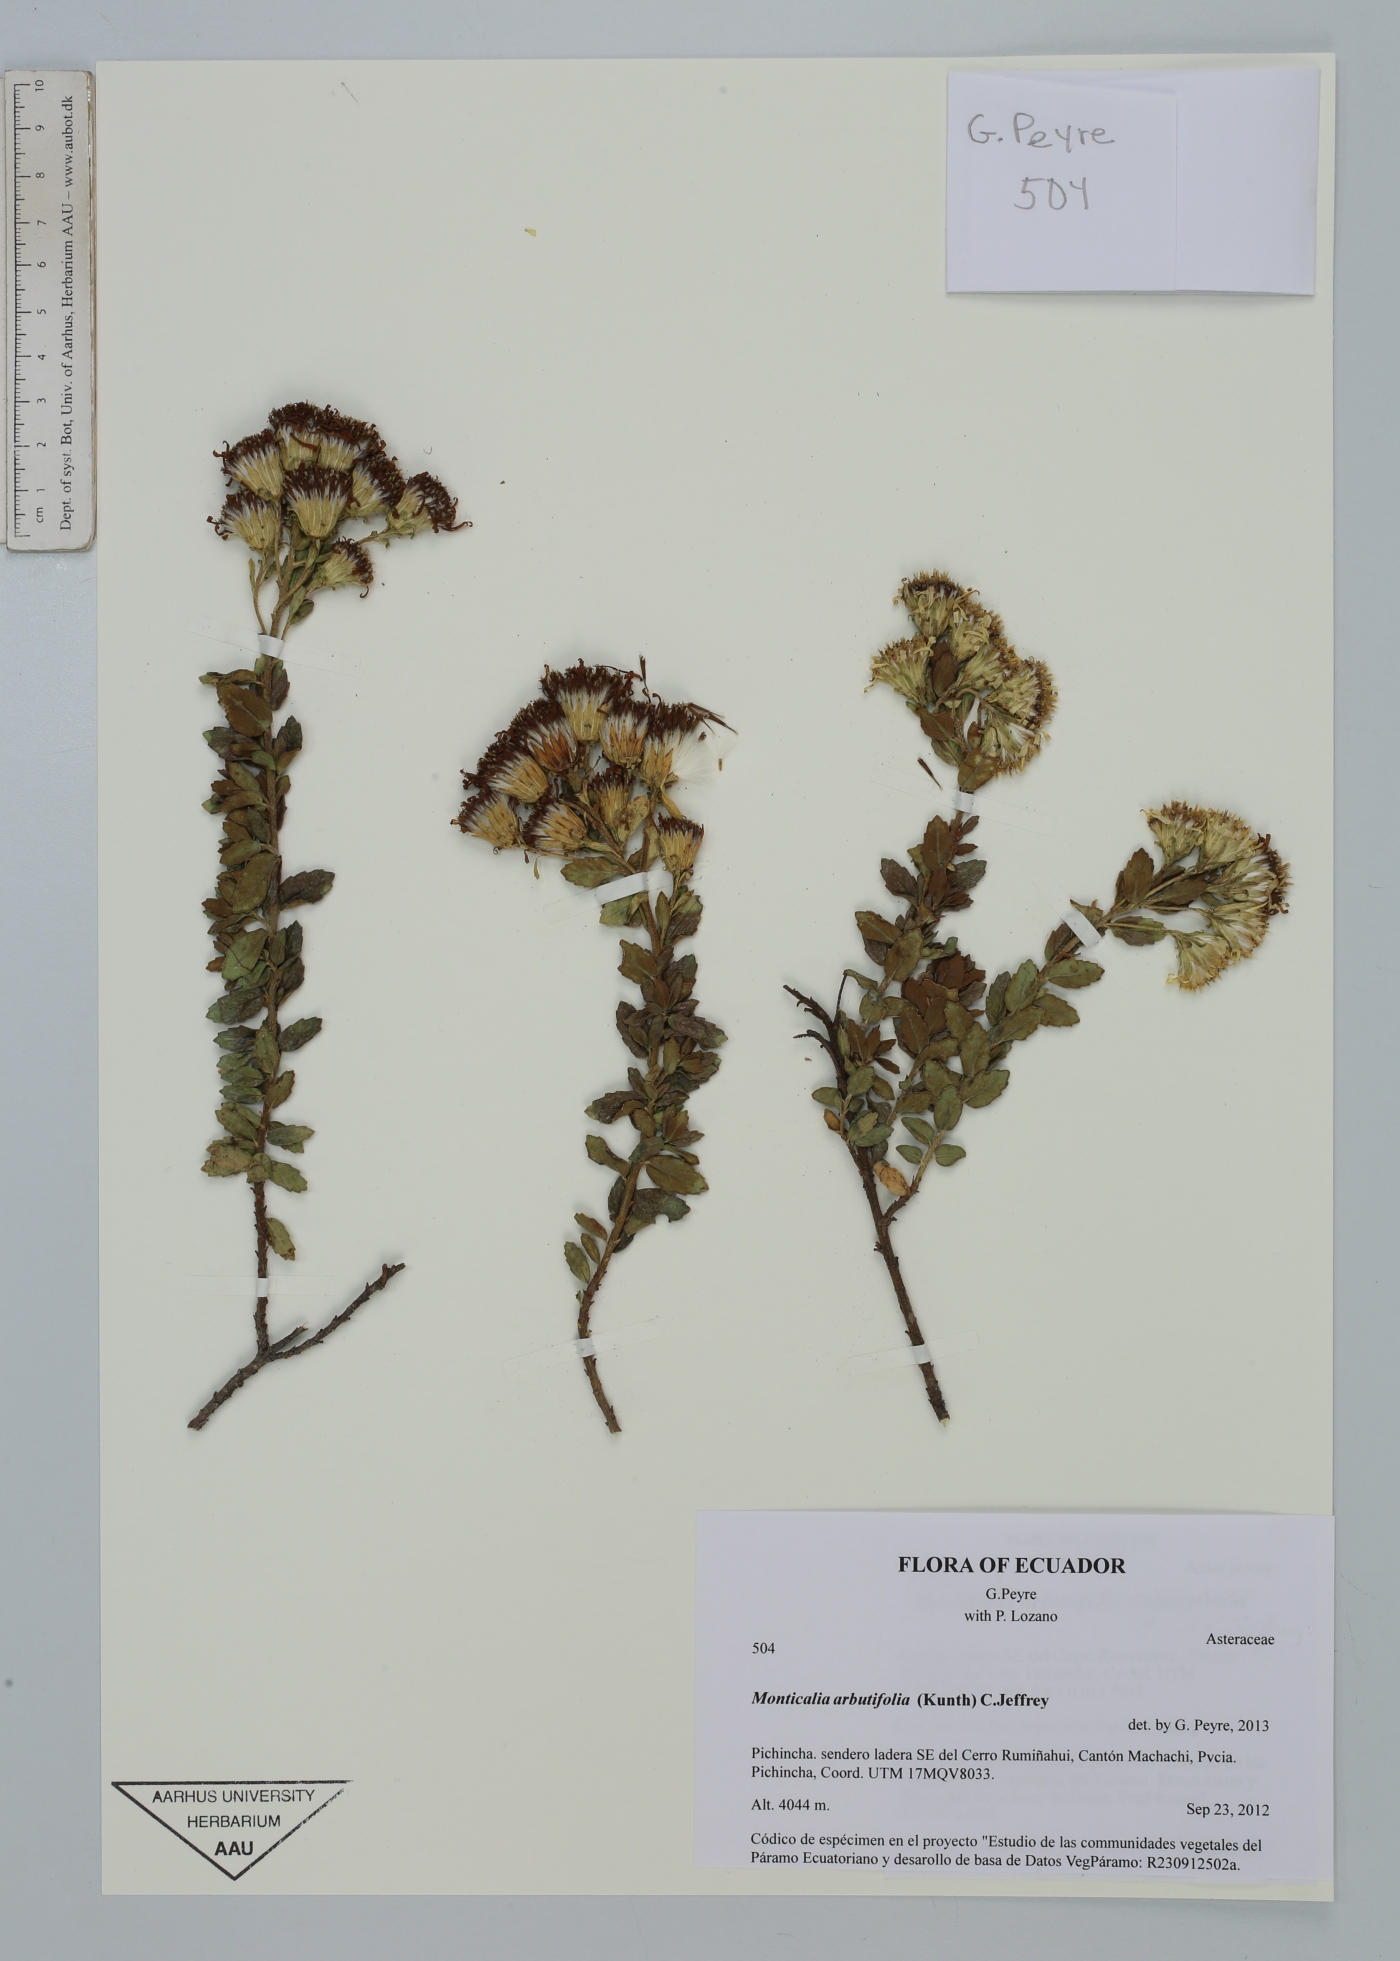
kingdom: Plantae
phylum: Tracheophyta
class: Magnoliopsida
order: Asterales
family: Asteraceae
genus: Monticalia
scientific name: Monticalia arbutifolia
